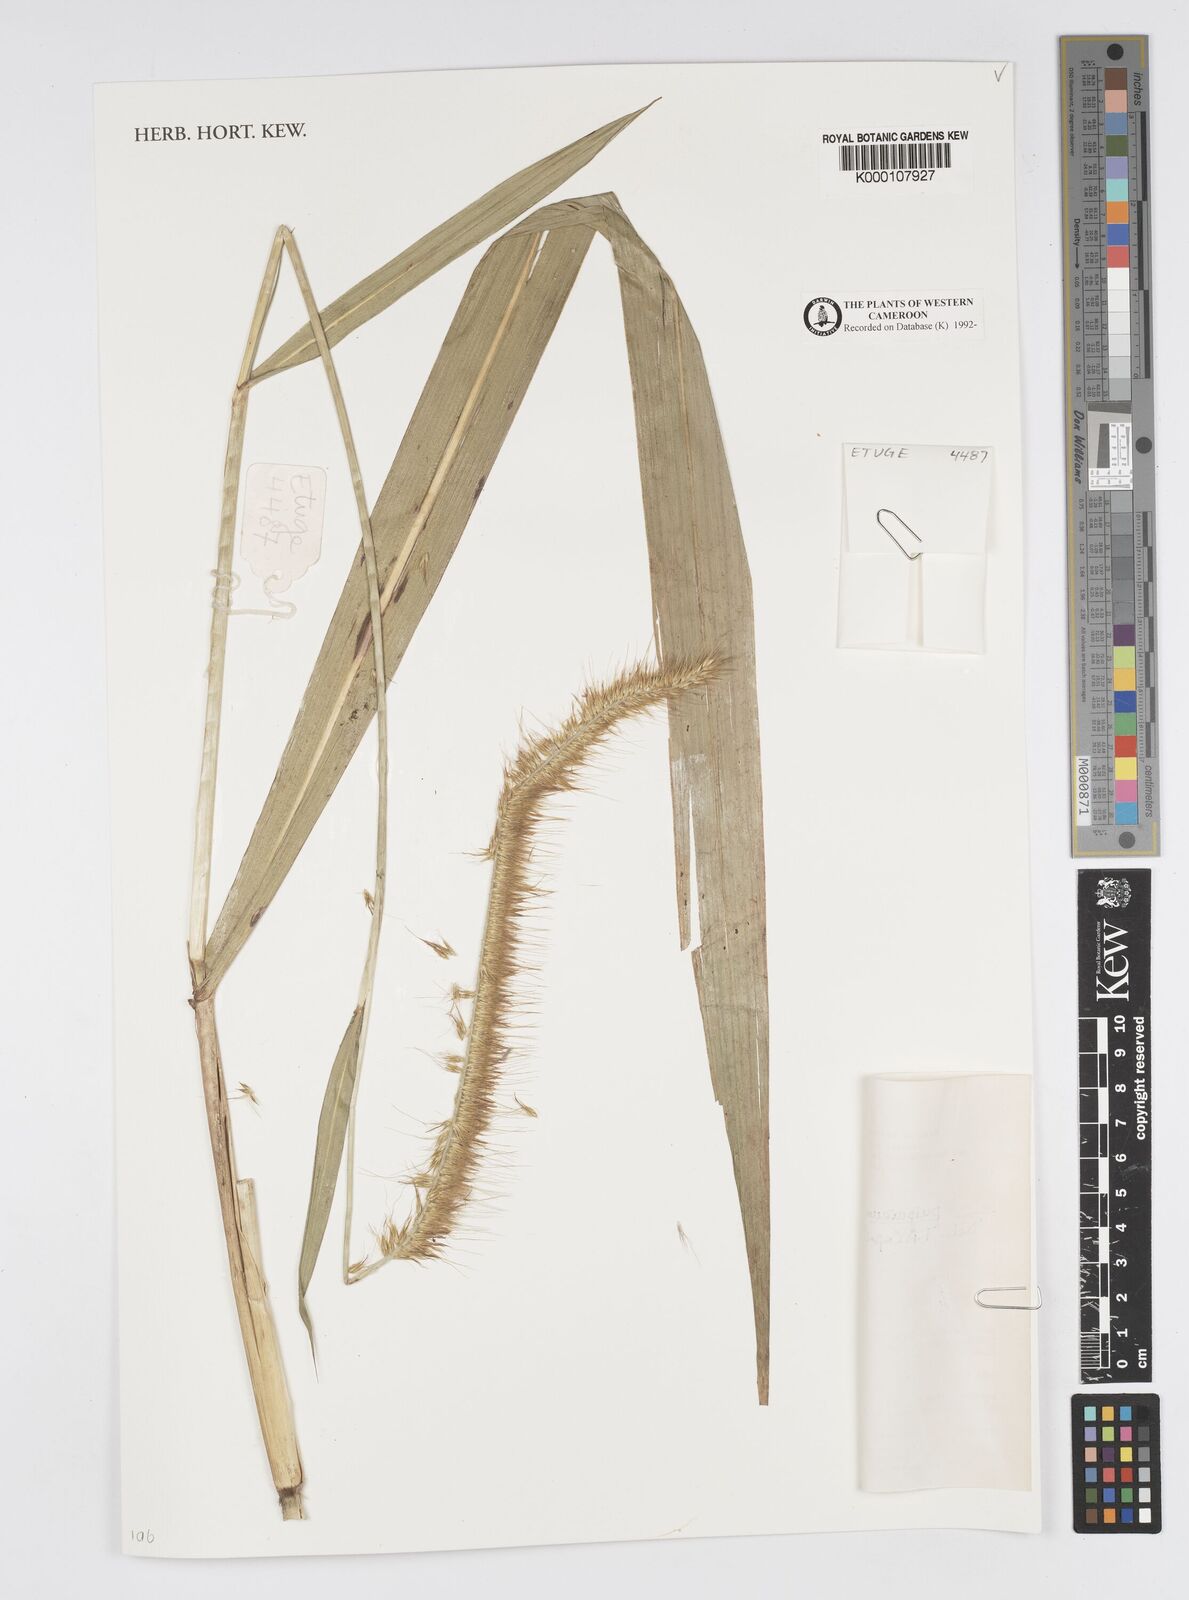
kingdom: Plantae
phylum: Tracheophyta
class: Liliopsida
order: Poales
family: Poaceae
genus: Cenchrus
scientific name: Cenchrus purpureus
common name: Elephant grass
